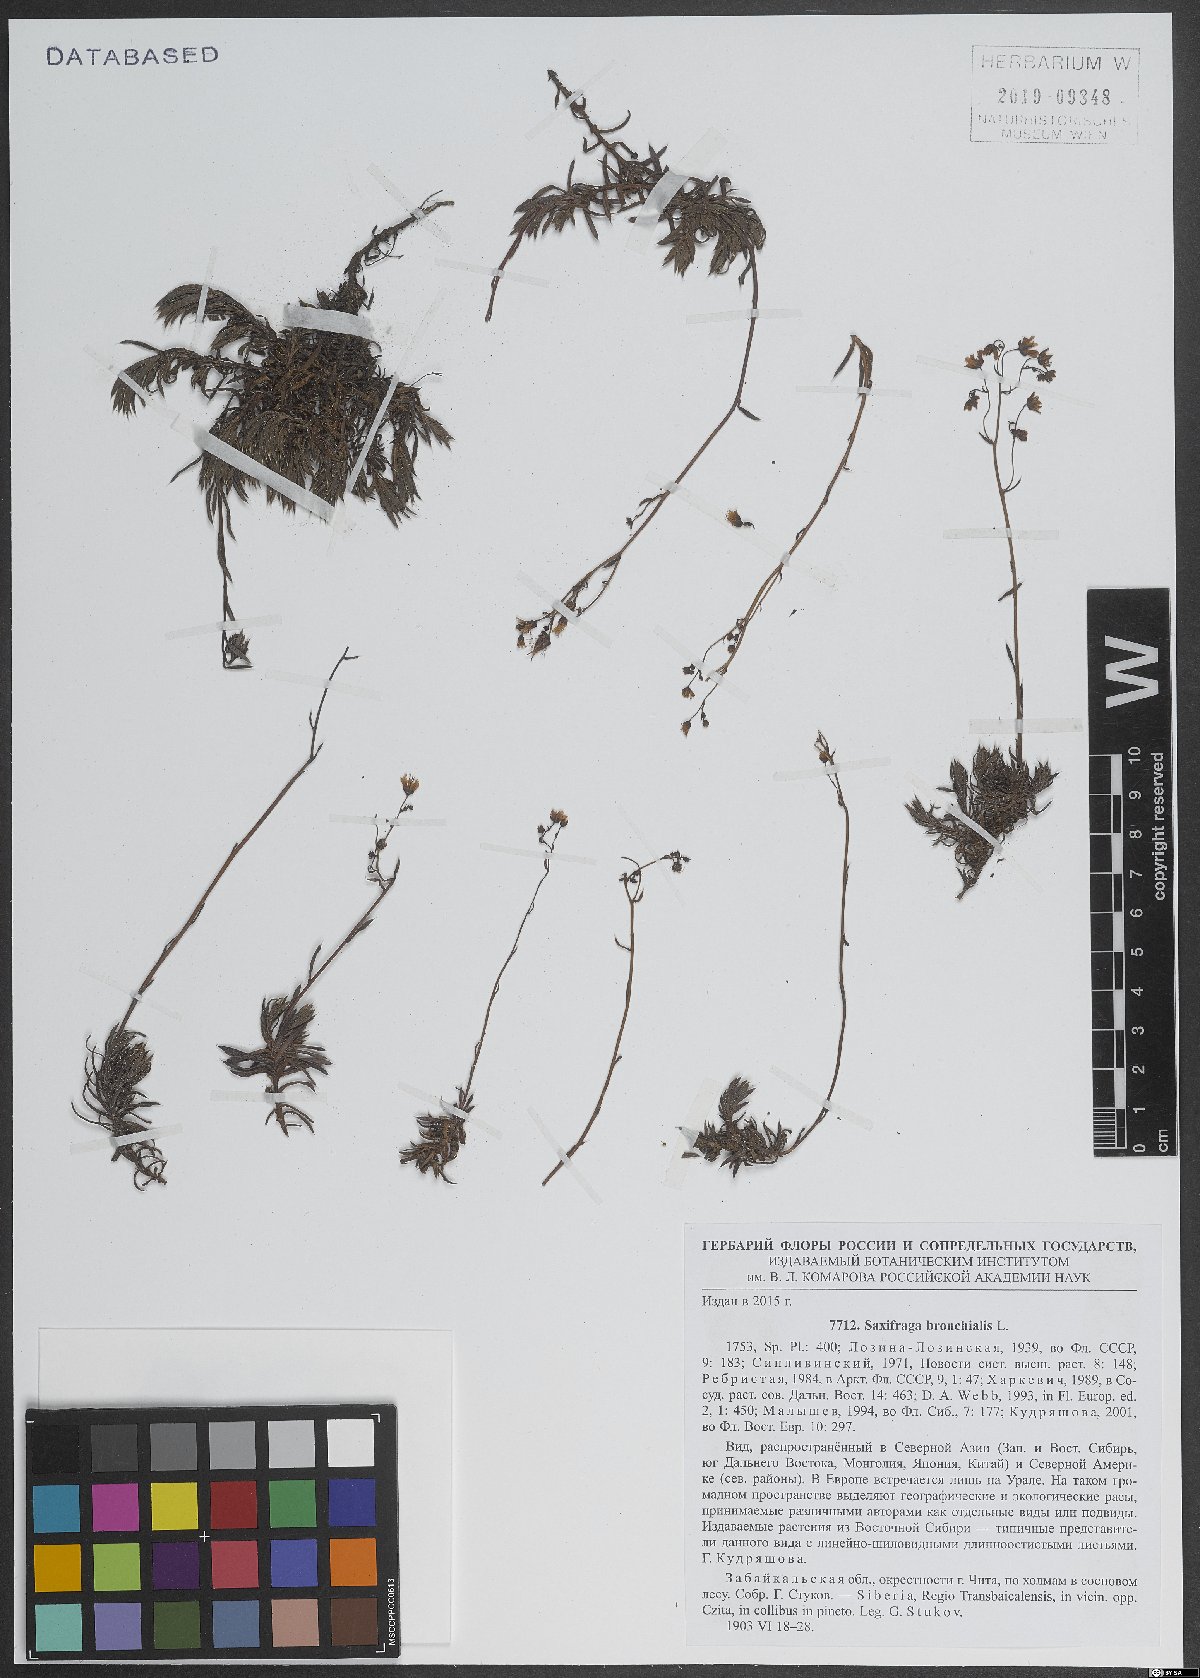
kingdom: Plantae
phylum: Tracheophyta
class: Magnoliopsida
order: Saxifragales
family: Saxifragaceae
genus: Saxifraga
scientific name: Saxifraga bronchialis
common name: Matted saxifrage
